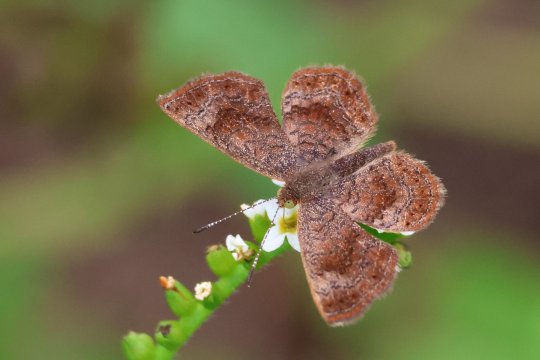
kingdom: Animalia
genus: Calephelis
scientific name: Calephelis perditalis
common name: Rounded Metalmark
